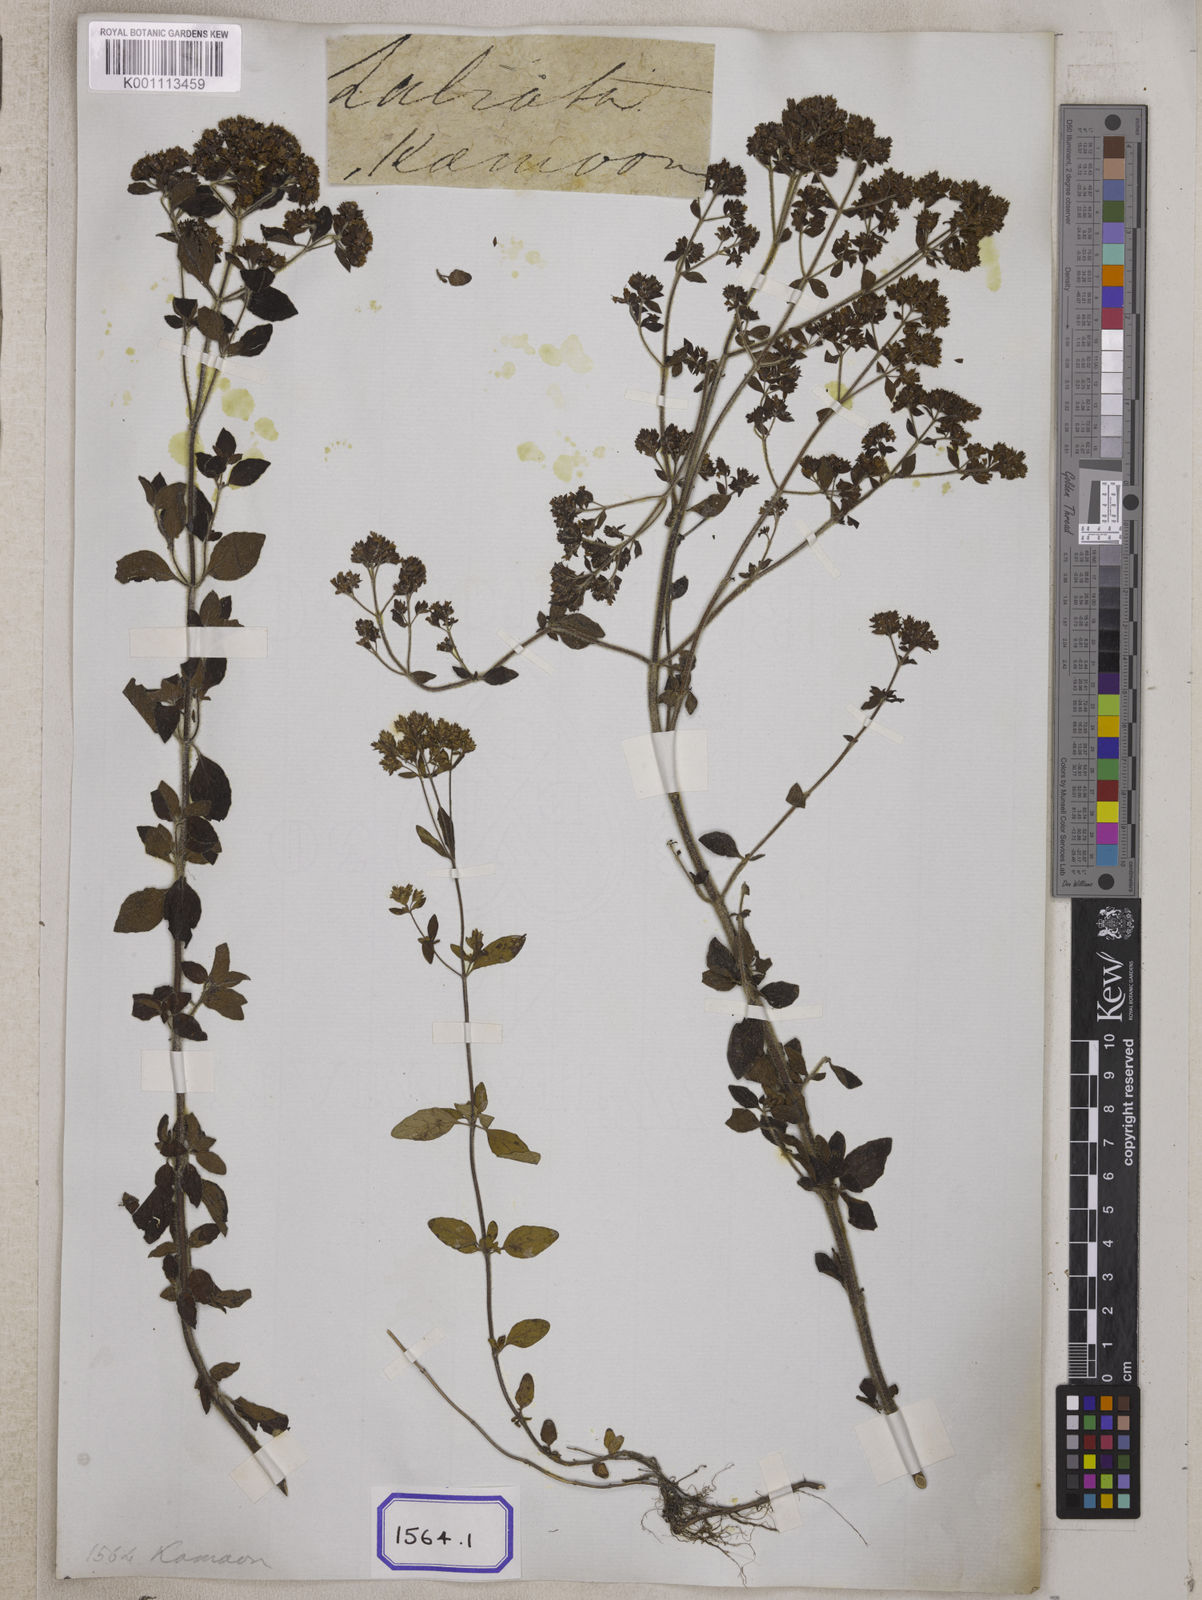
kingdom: Plantae
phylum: Tracheophyta
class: Magnoliopsida
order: Lamiales
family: Lamiaceae
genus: Origanum
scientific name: Origanum vulgare
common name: Wild marjoram
